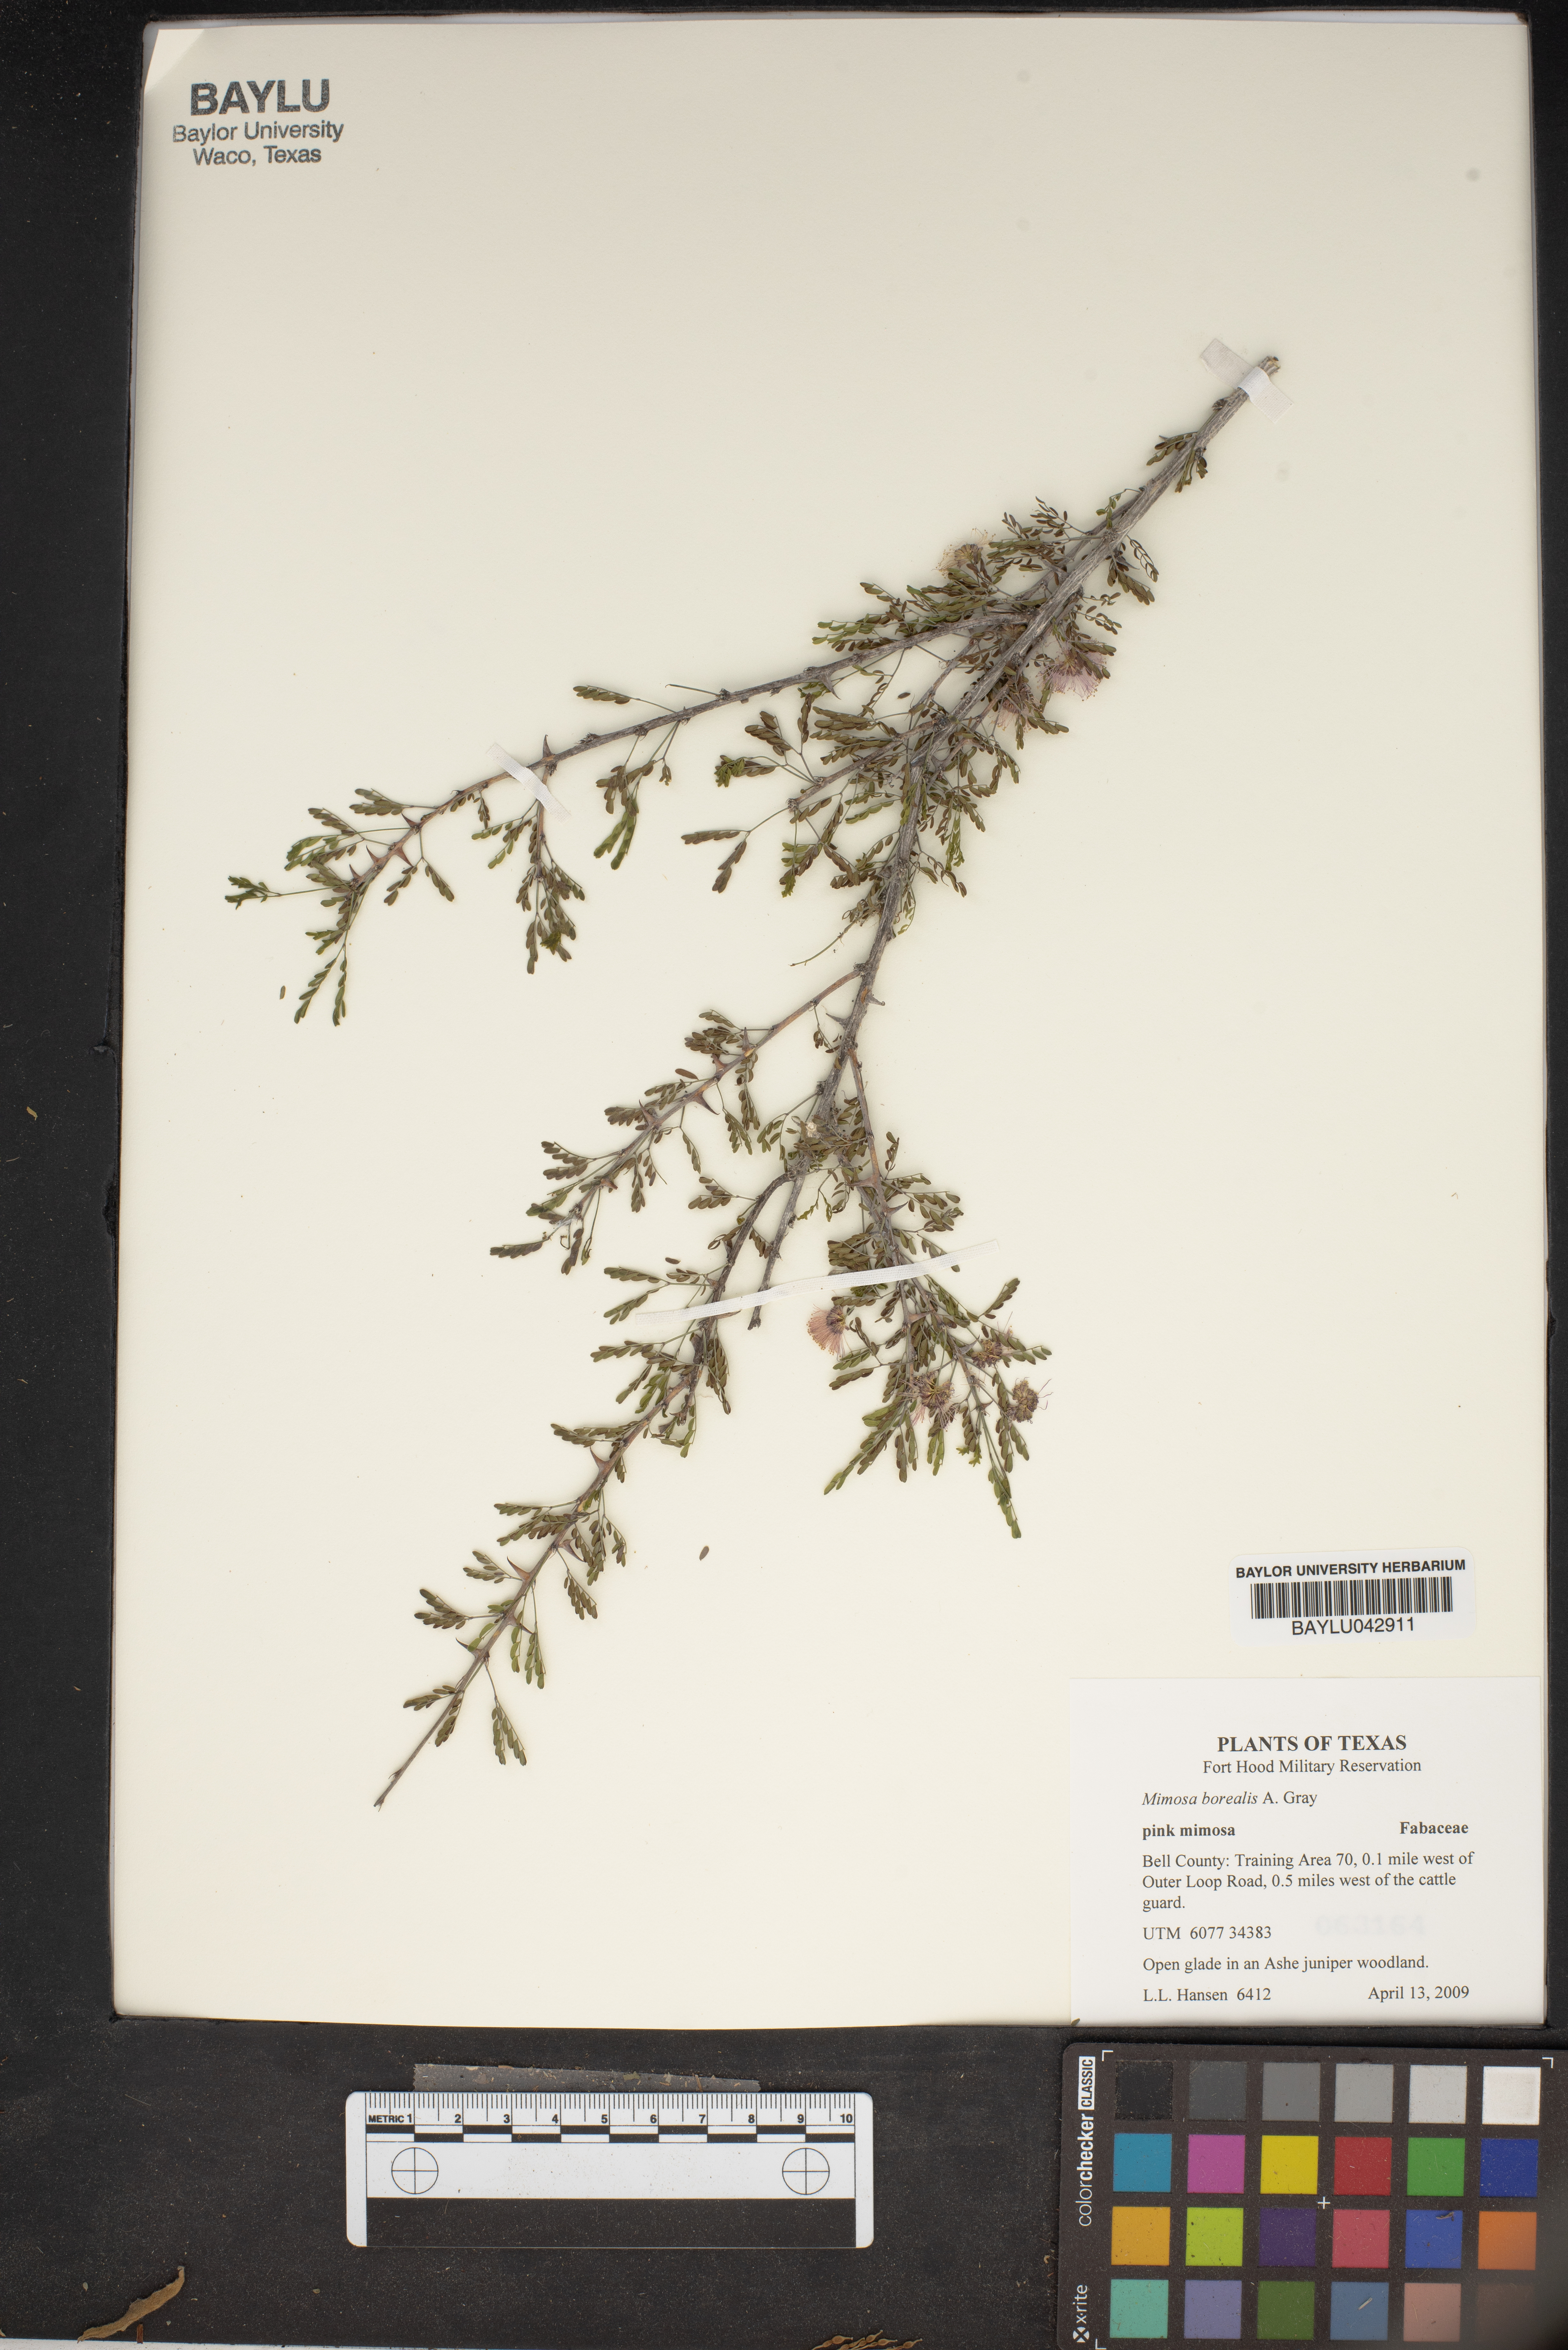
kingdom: Plantae
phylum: Tracheophyta
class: Magnoliopsida
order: Fabales
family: Fabaceae
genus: Mimosa
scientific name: Mimosa borealis
